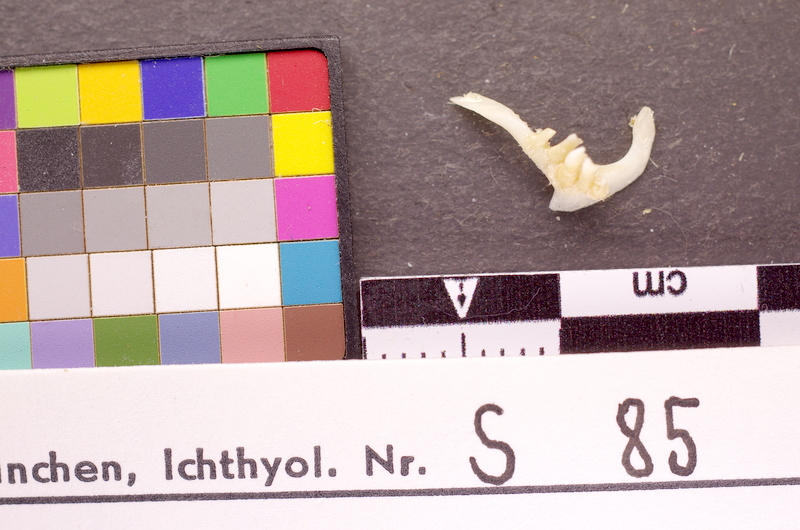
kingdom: Animalia
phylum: Chordata
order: Cypriniformes
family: Cyprinidae
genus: Ballerus
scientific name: Ballerus sapa
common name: White-eye bream
